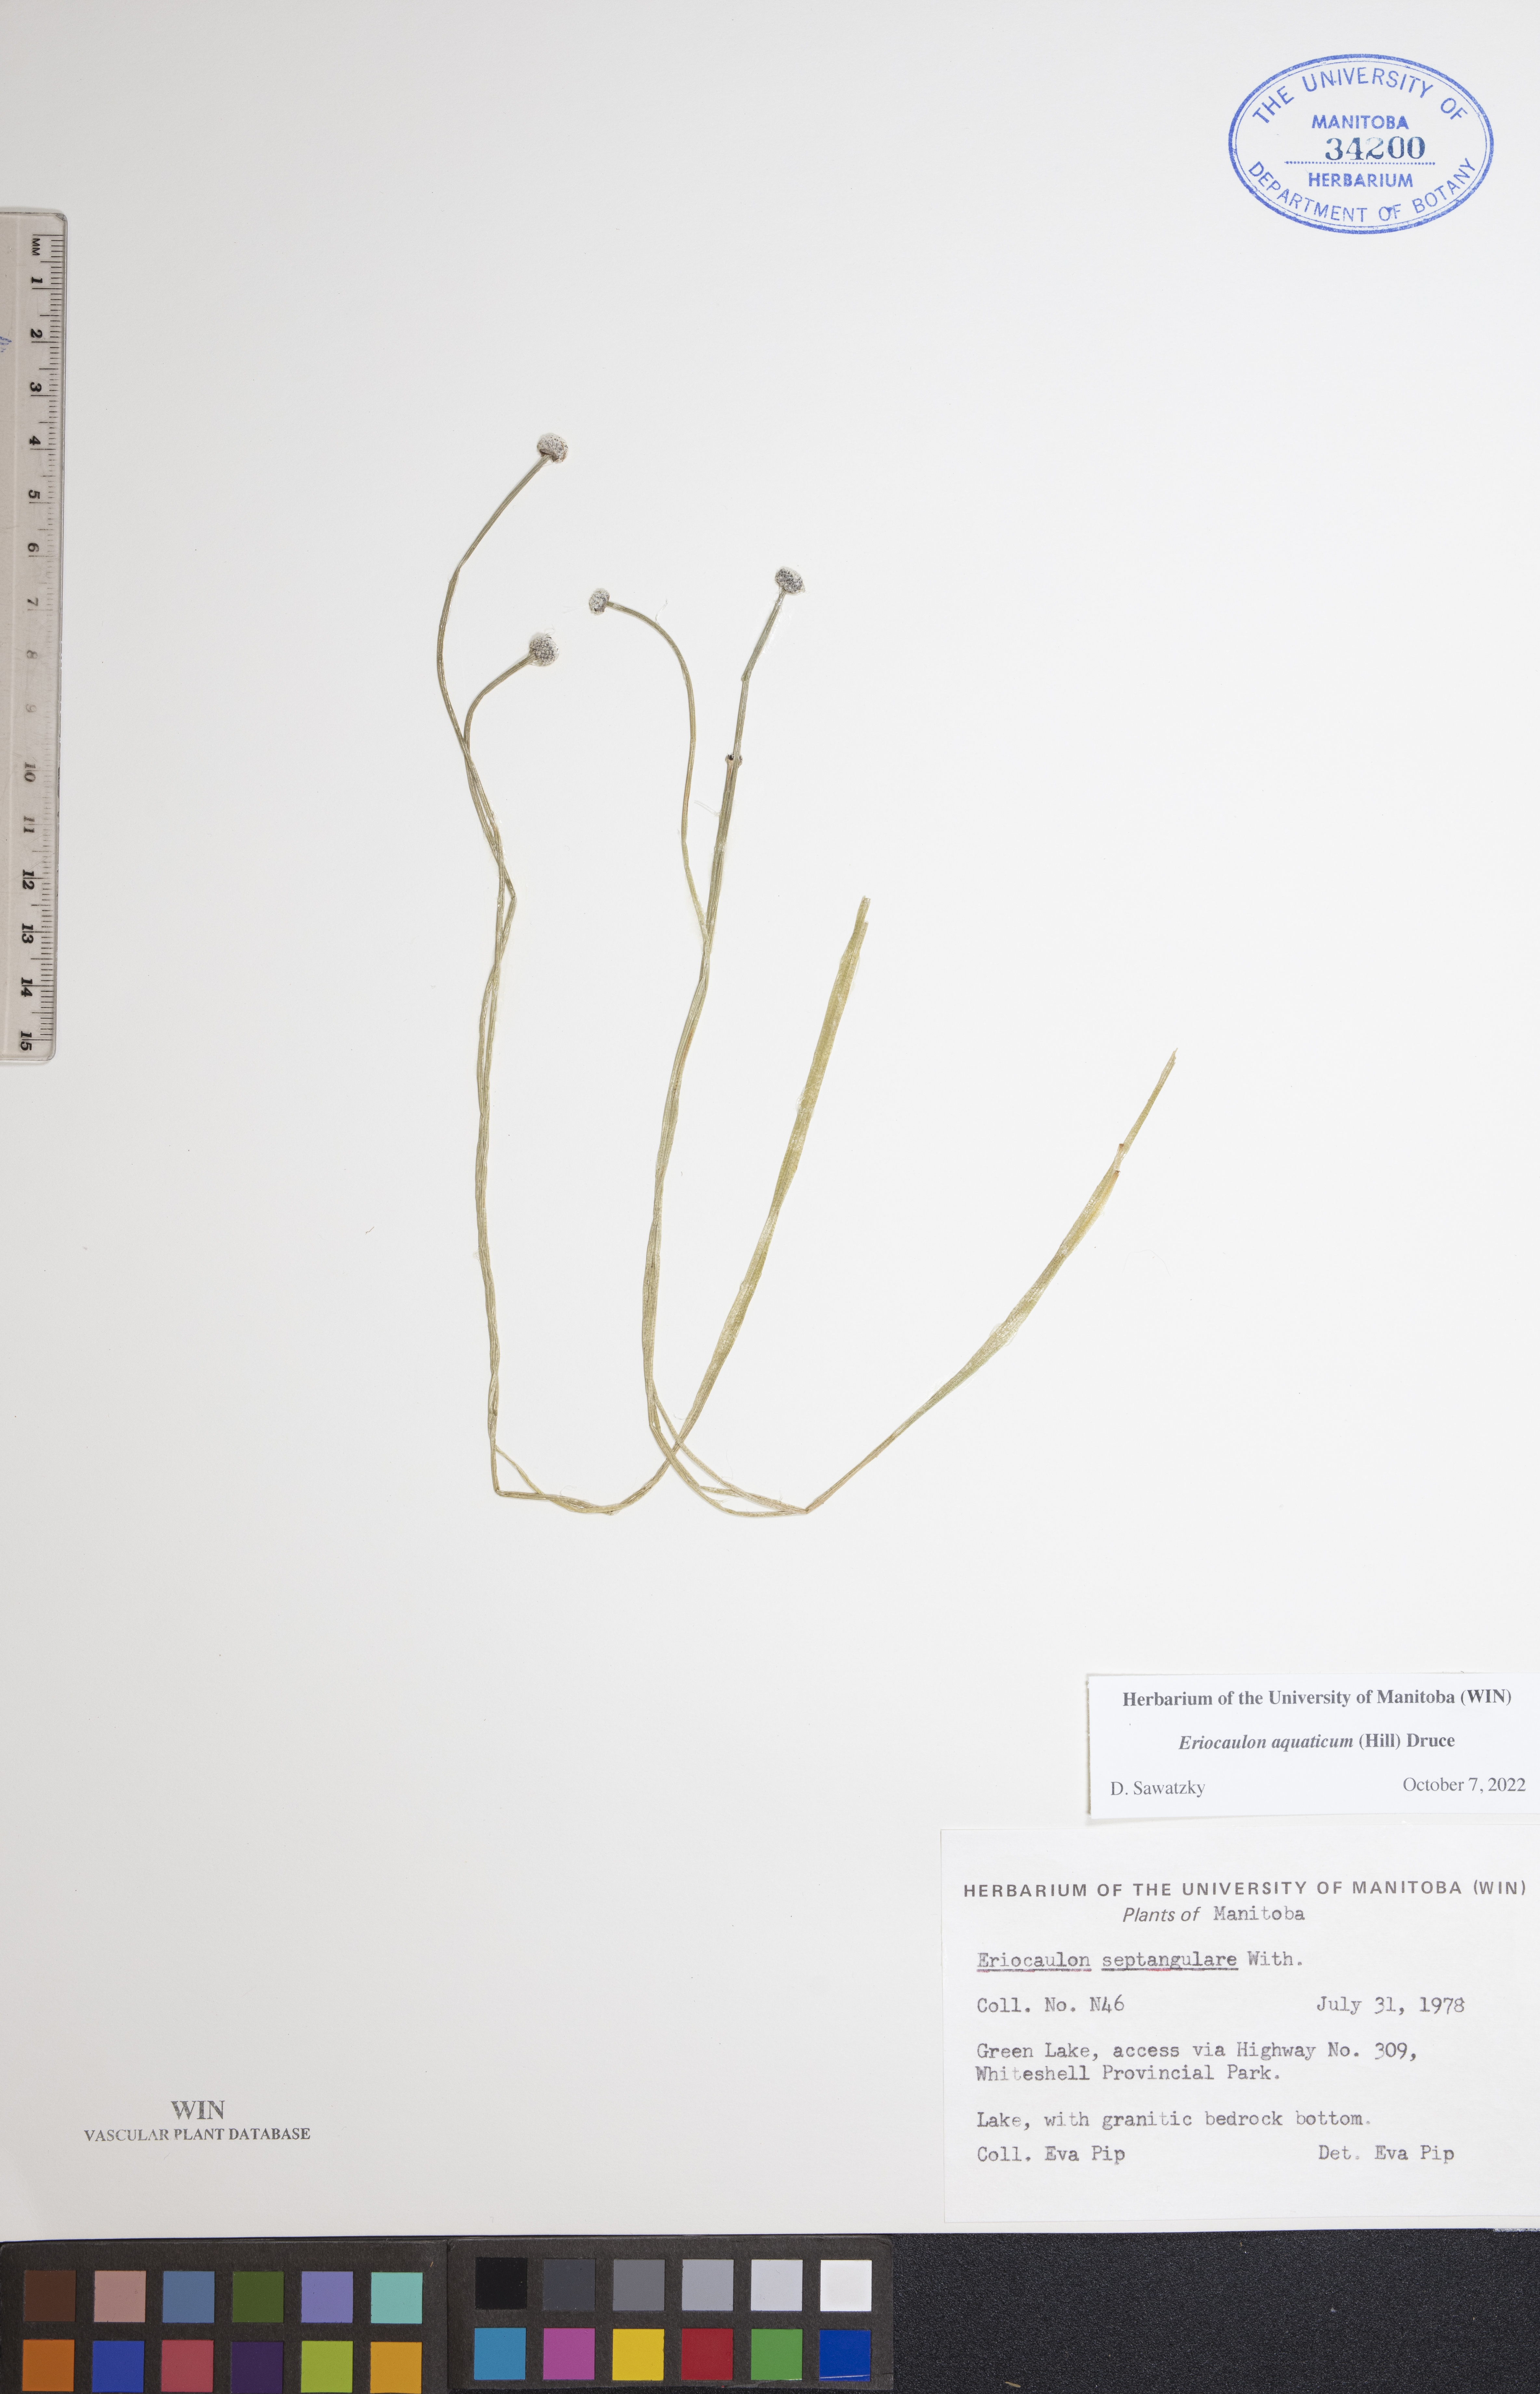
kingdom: Plantae
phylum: Tracheophyta
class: Liliopsida
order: Poales
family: Eriocaulaceae
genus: Eriocaulon
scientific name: Eriocaulon aquaticum
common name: Pipewort
